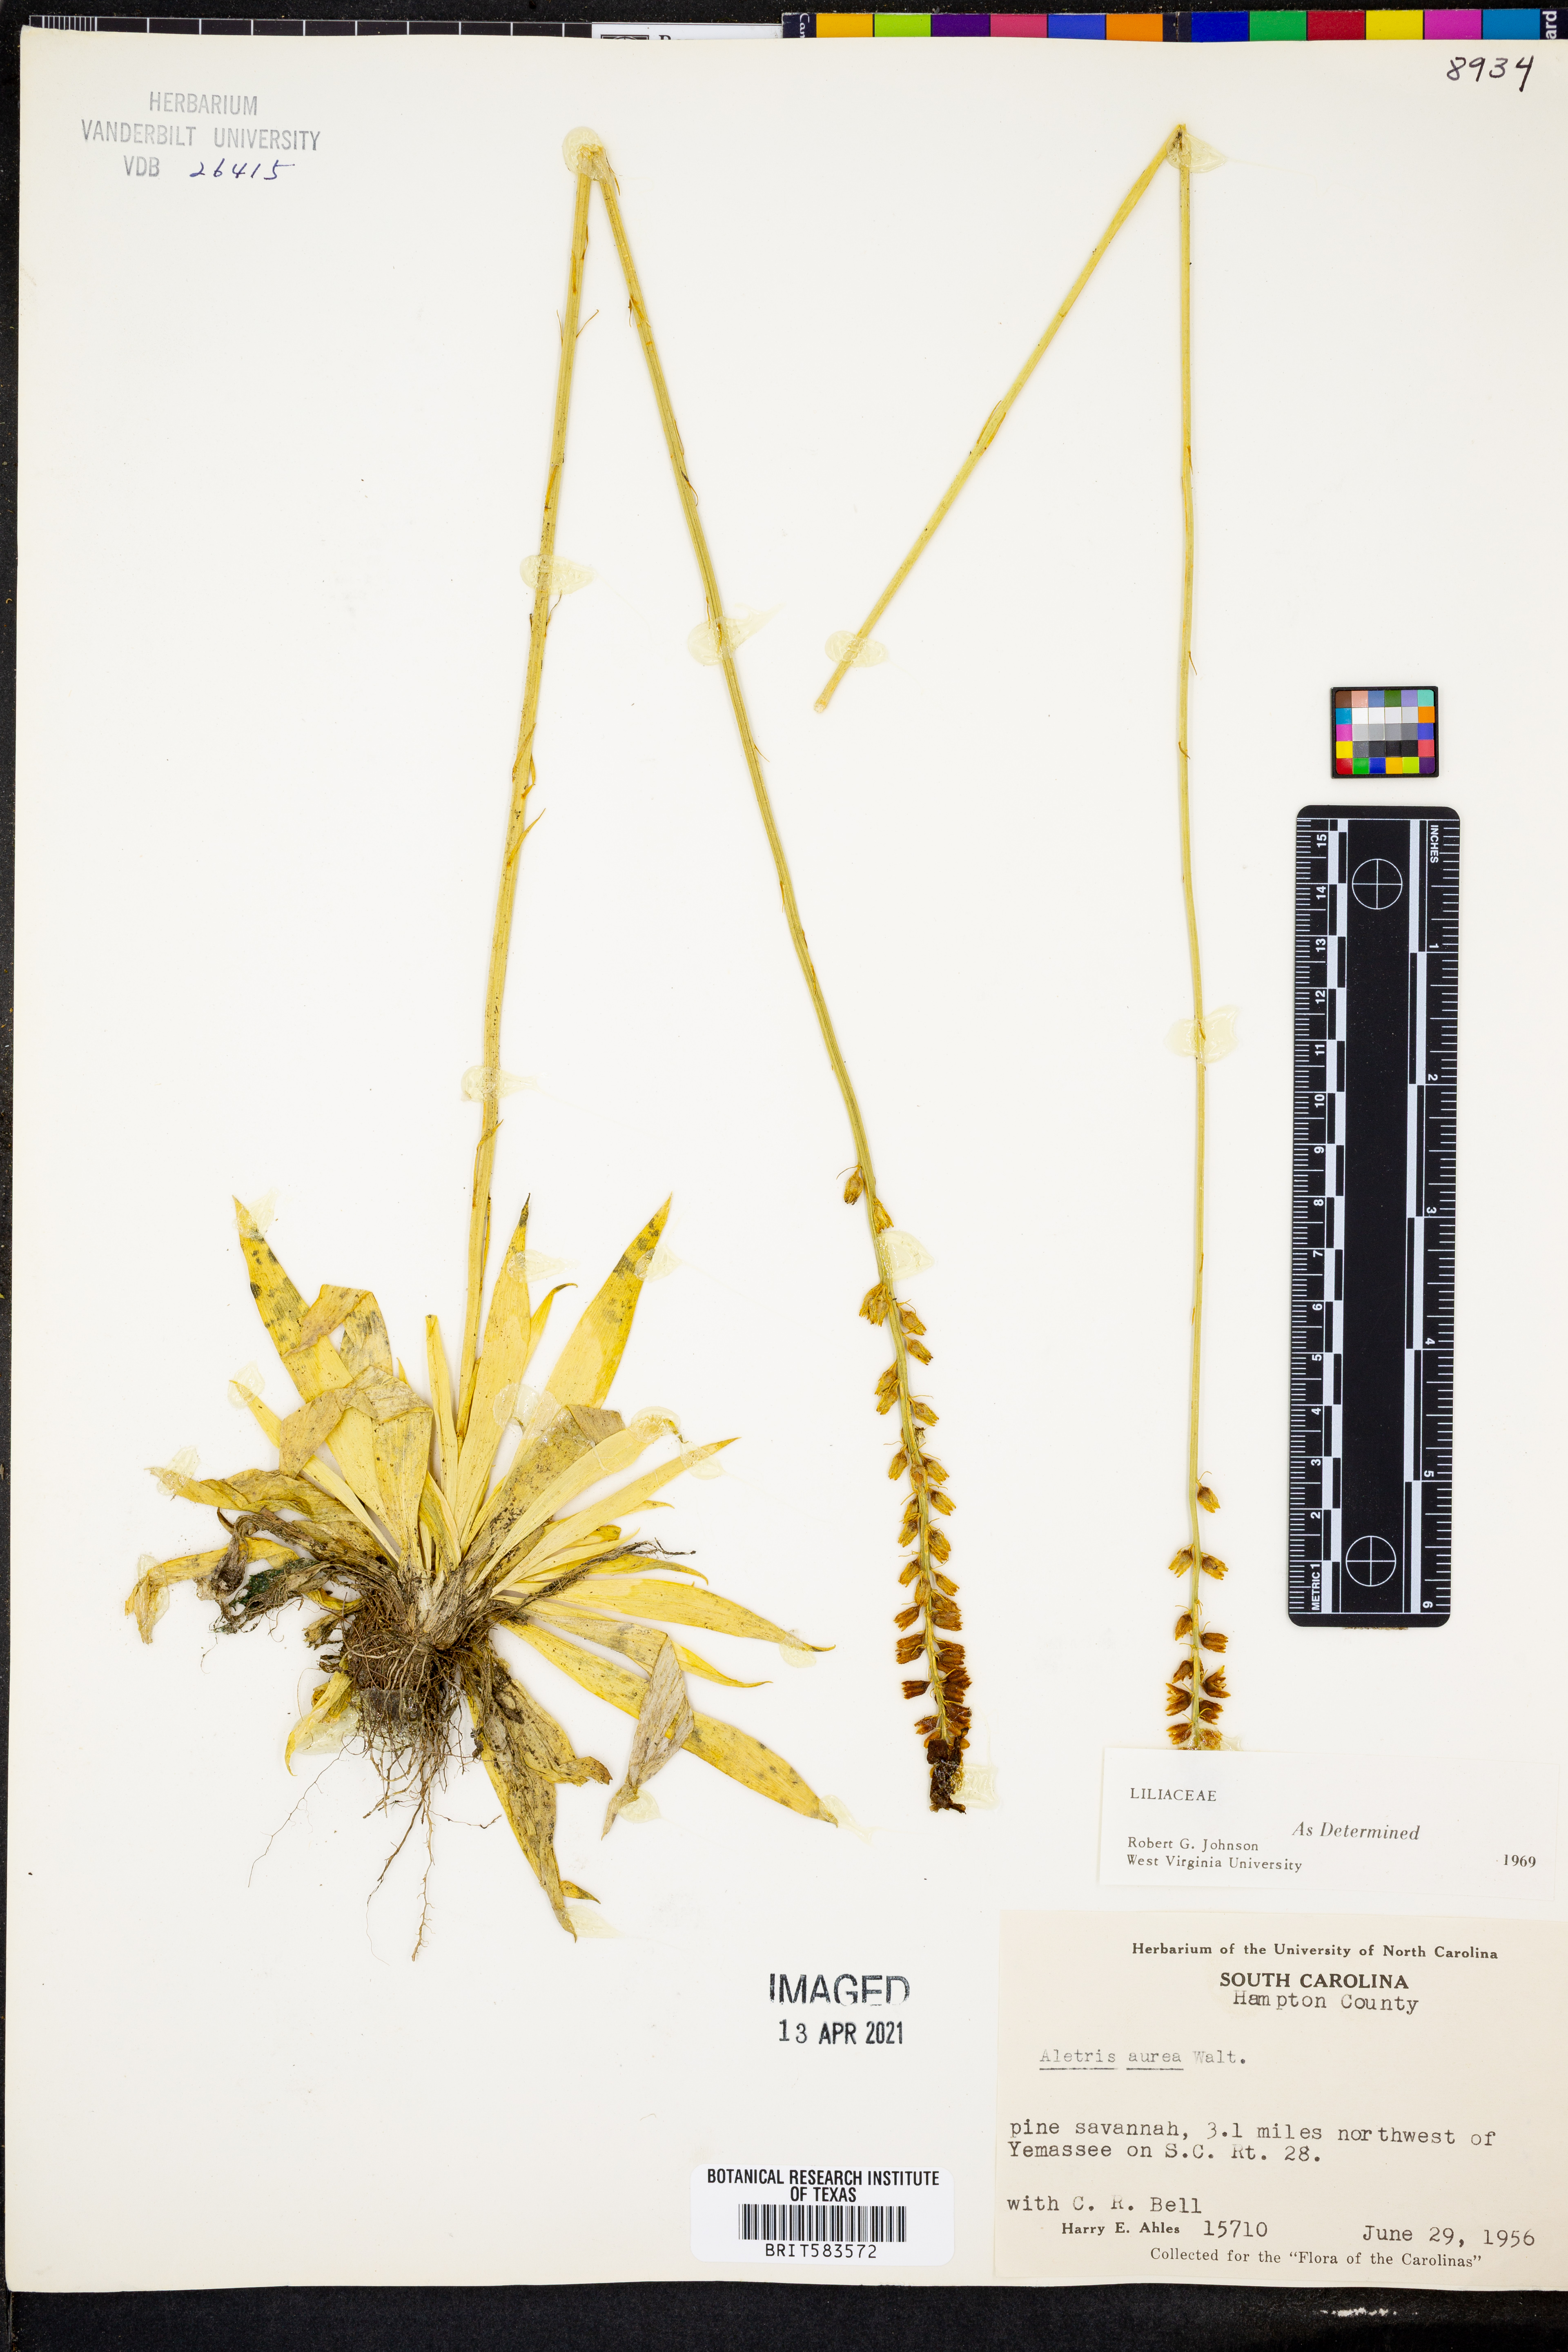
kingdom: Plantae
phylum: Tracheophyta
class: Liliopsida
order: Dioscoreales
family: Nartheciaceae
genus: Aletris
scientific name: Aletris aurea
